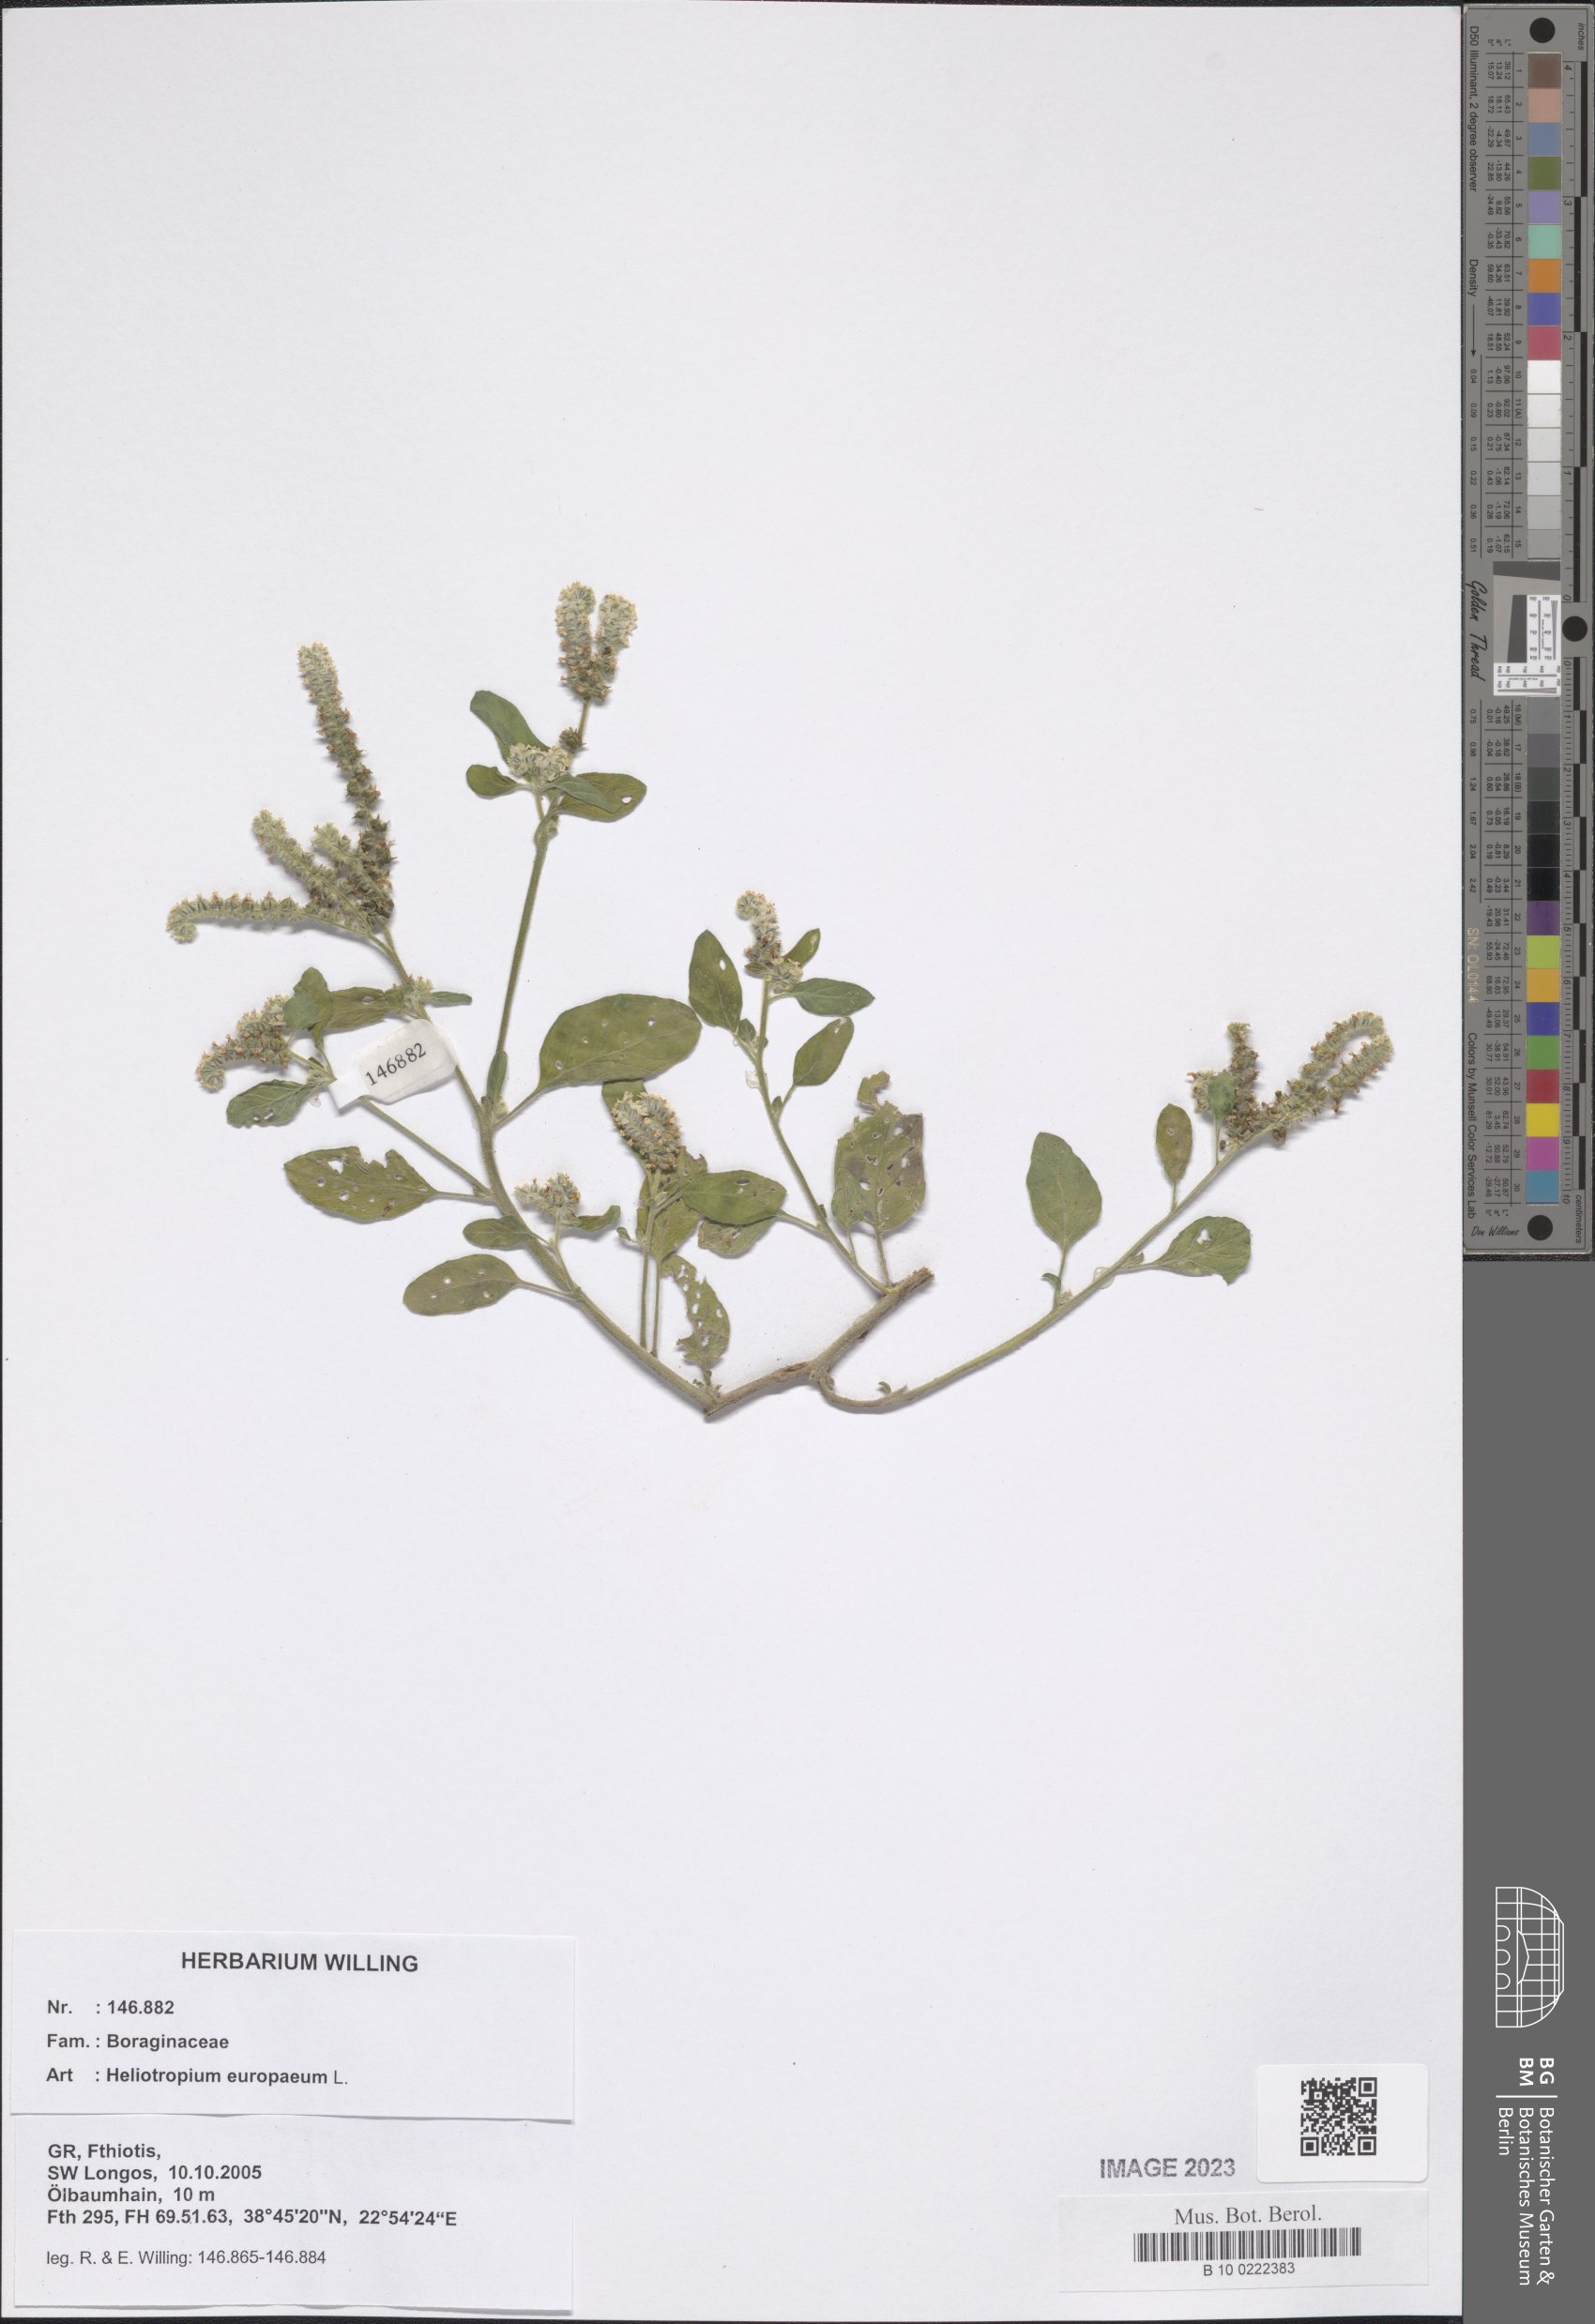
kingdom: Plantae
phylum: Tracheophyta
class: Magnoliopsida
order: Boraginales
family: Heliotropiaceae
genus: Heliotropium
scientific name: Heliotropium europaeum
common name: European heliotrope
